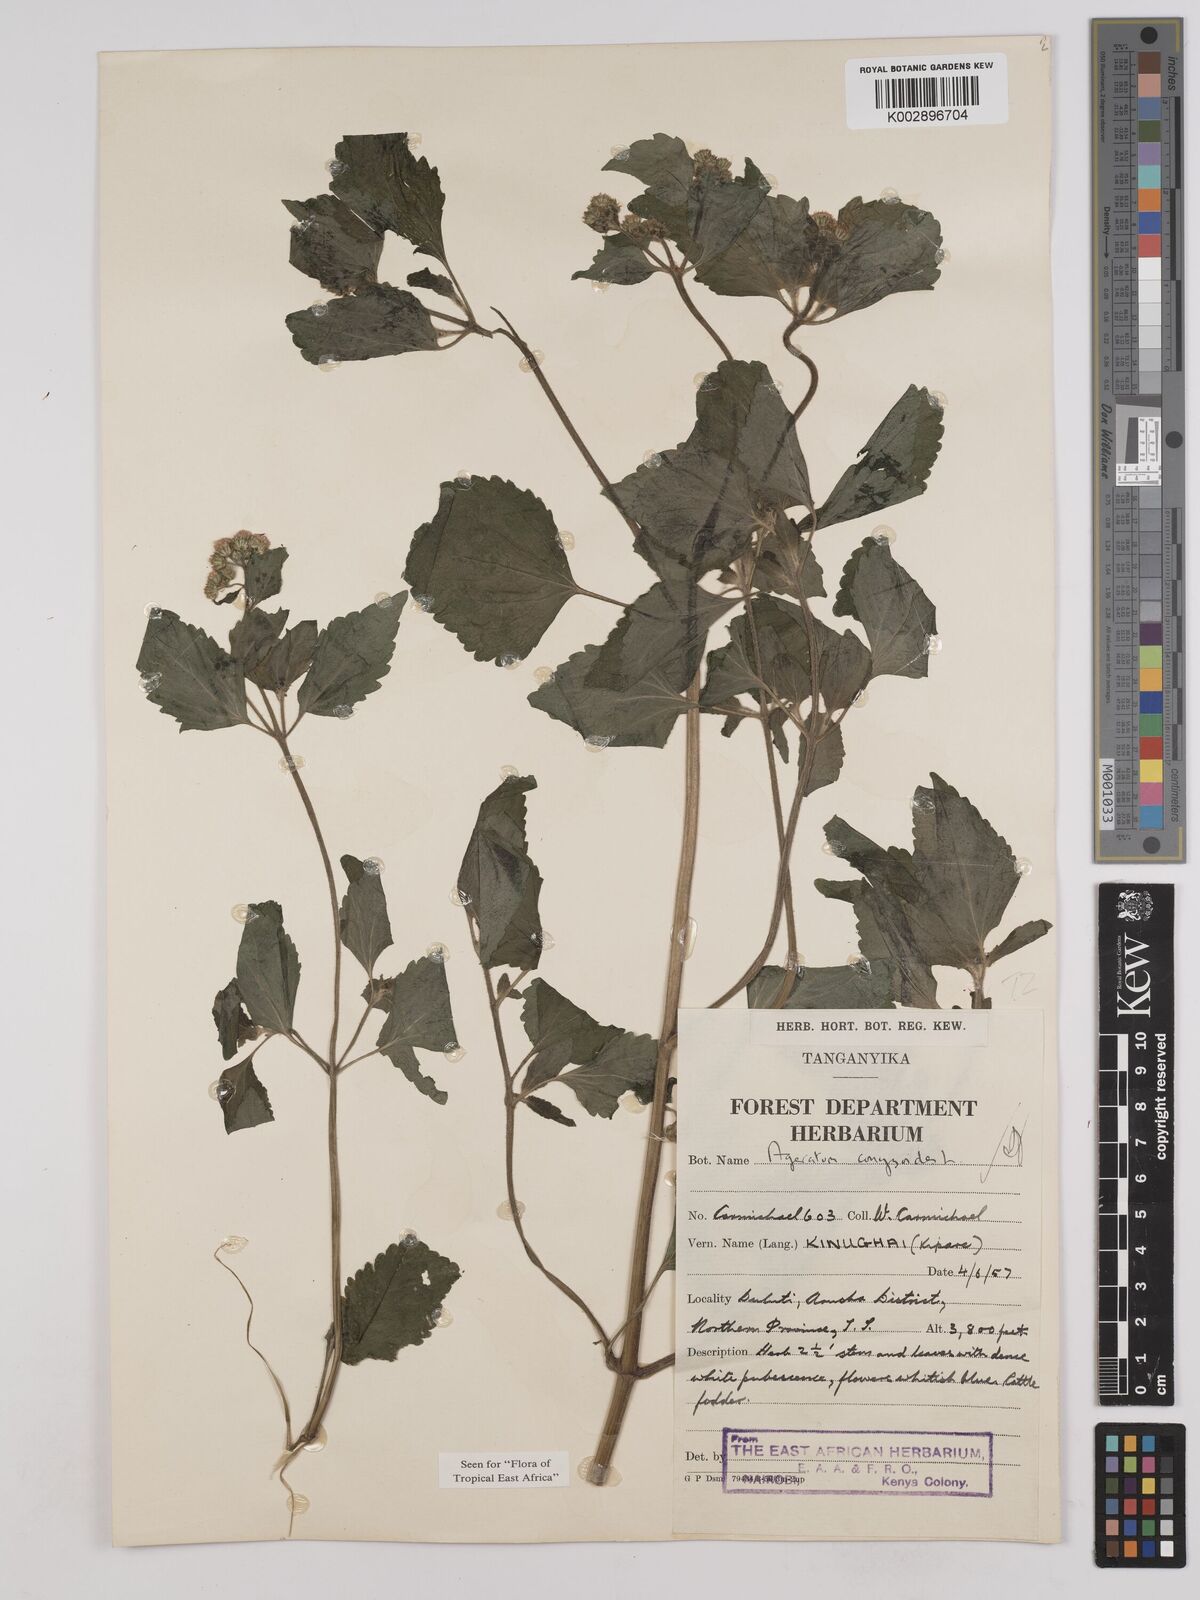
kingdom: Plantae
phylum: Tracheophyta
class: Magnoliopsida
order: Asterales
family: Asteraceae
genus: Ageratum
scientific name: Ageratum conyzoides
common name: Tropical whiteweed
